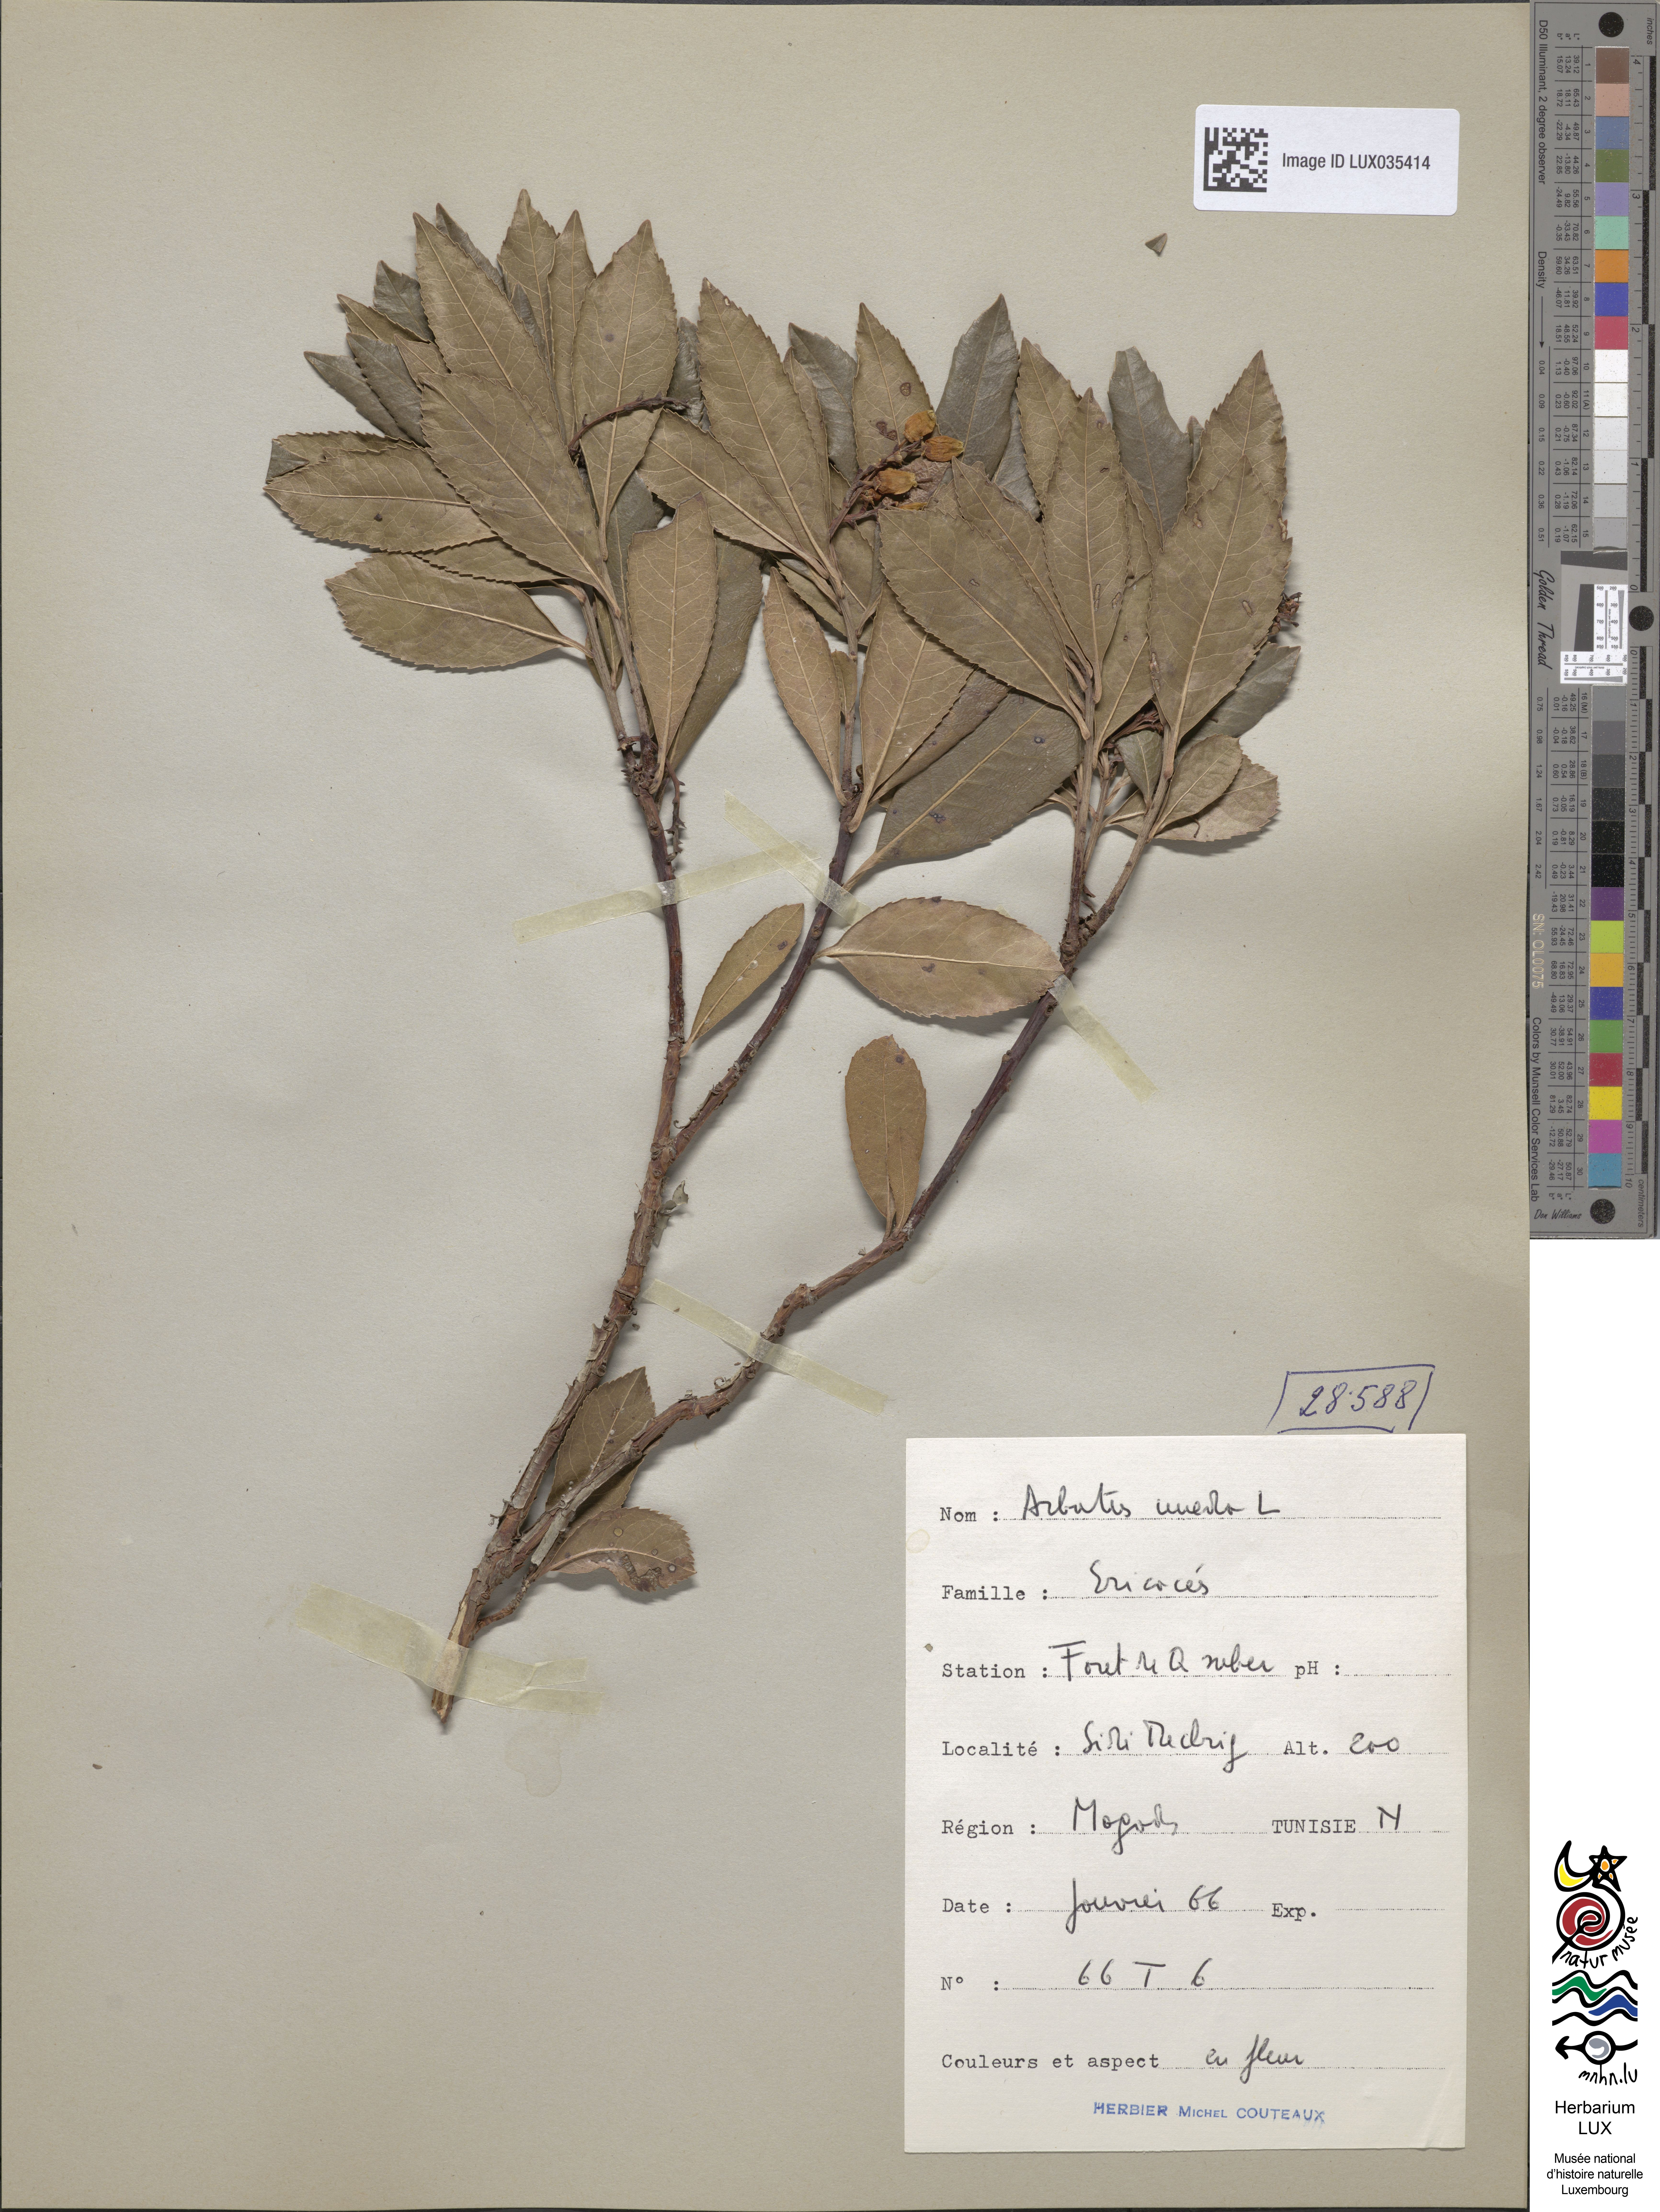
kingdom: Plantae
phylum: Tracheophyta
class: Magnoliopsida
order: Ericales
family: Ericaceae
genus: Arbutus
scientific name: Arbutus unedo
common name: Strawberry-tree
